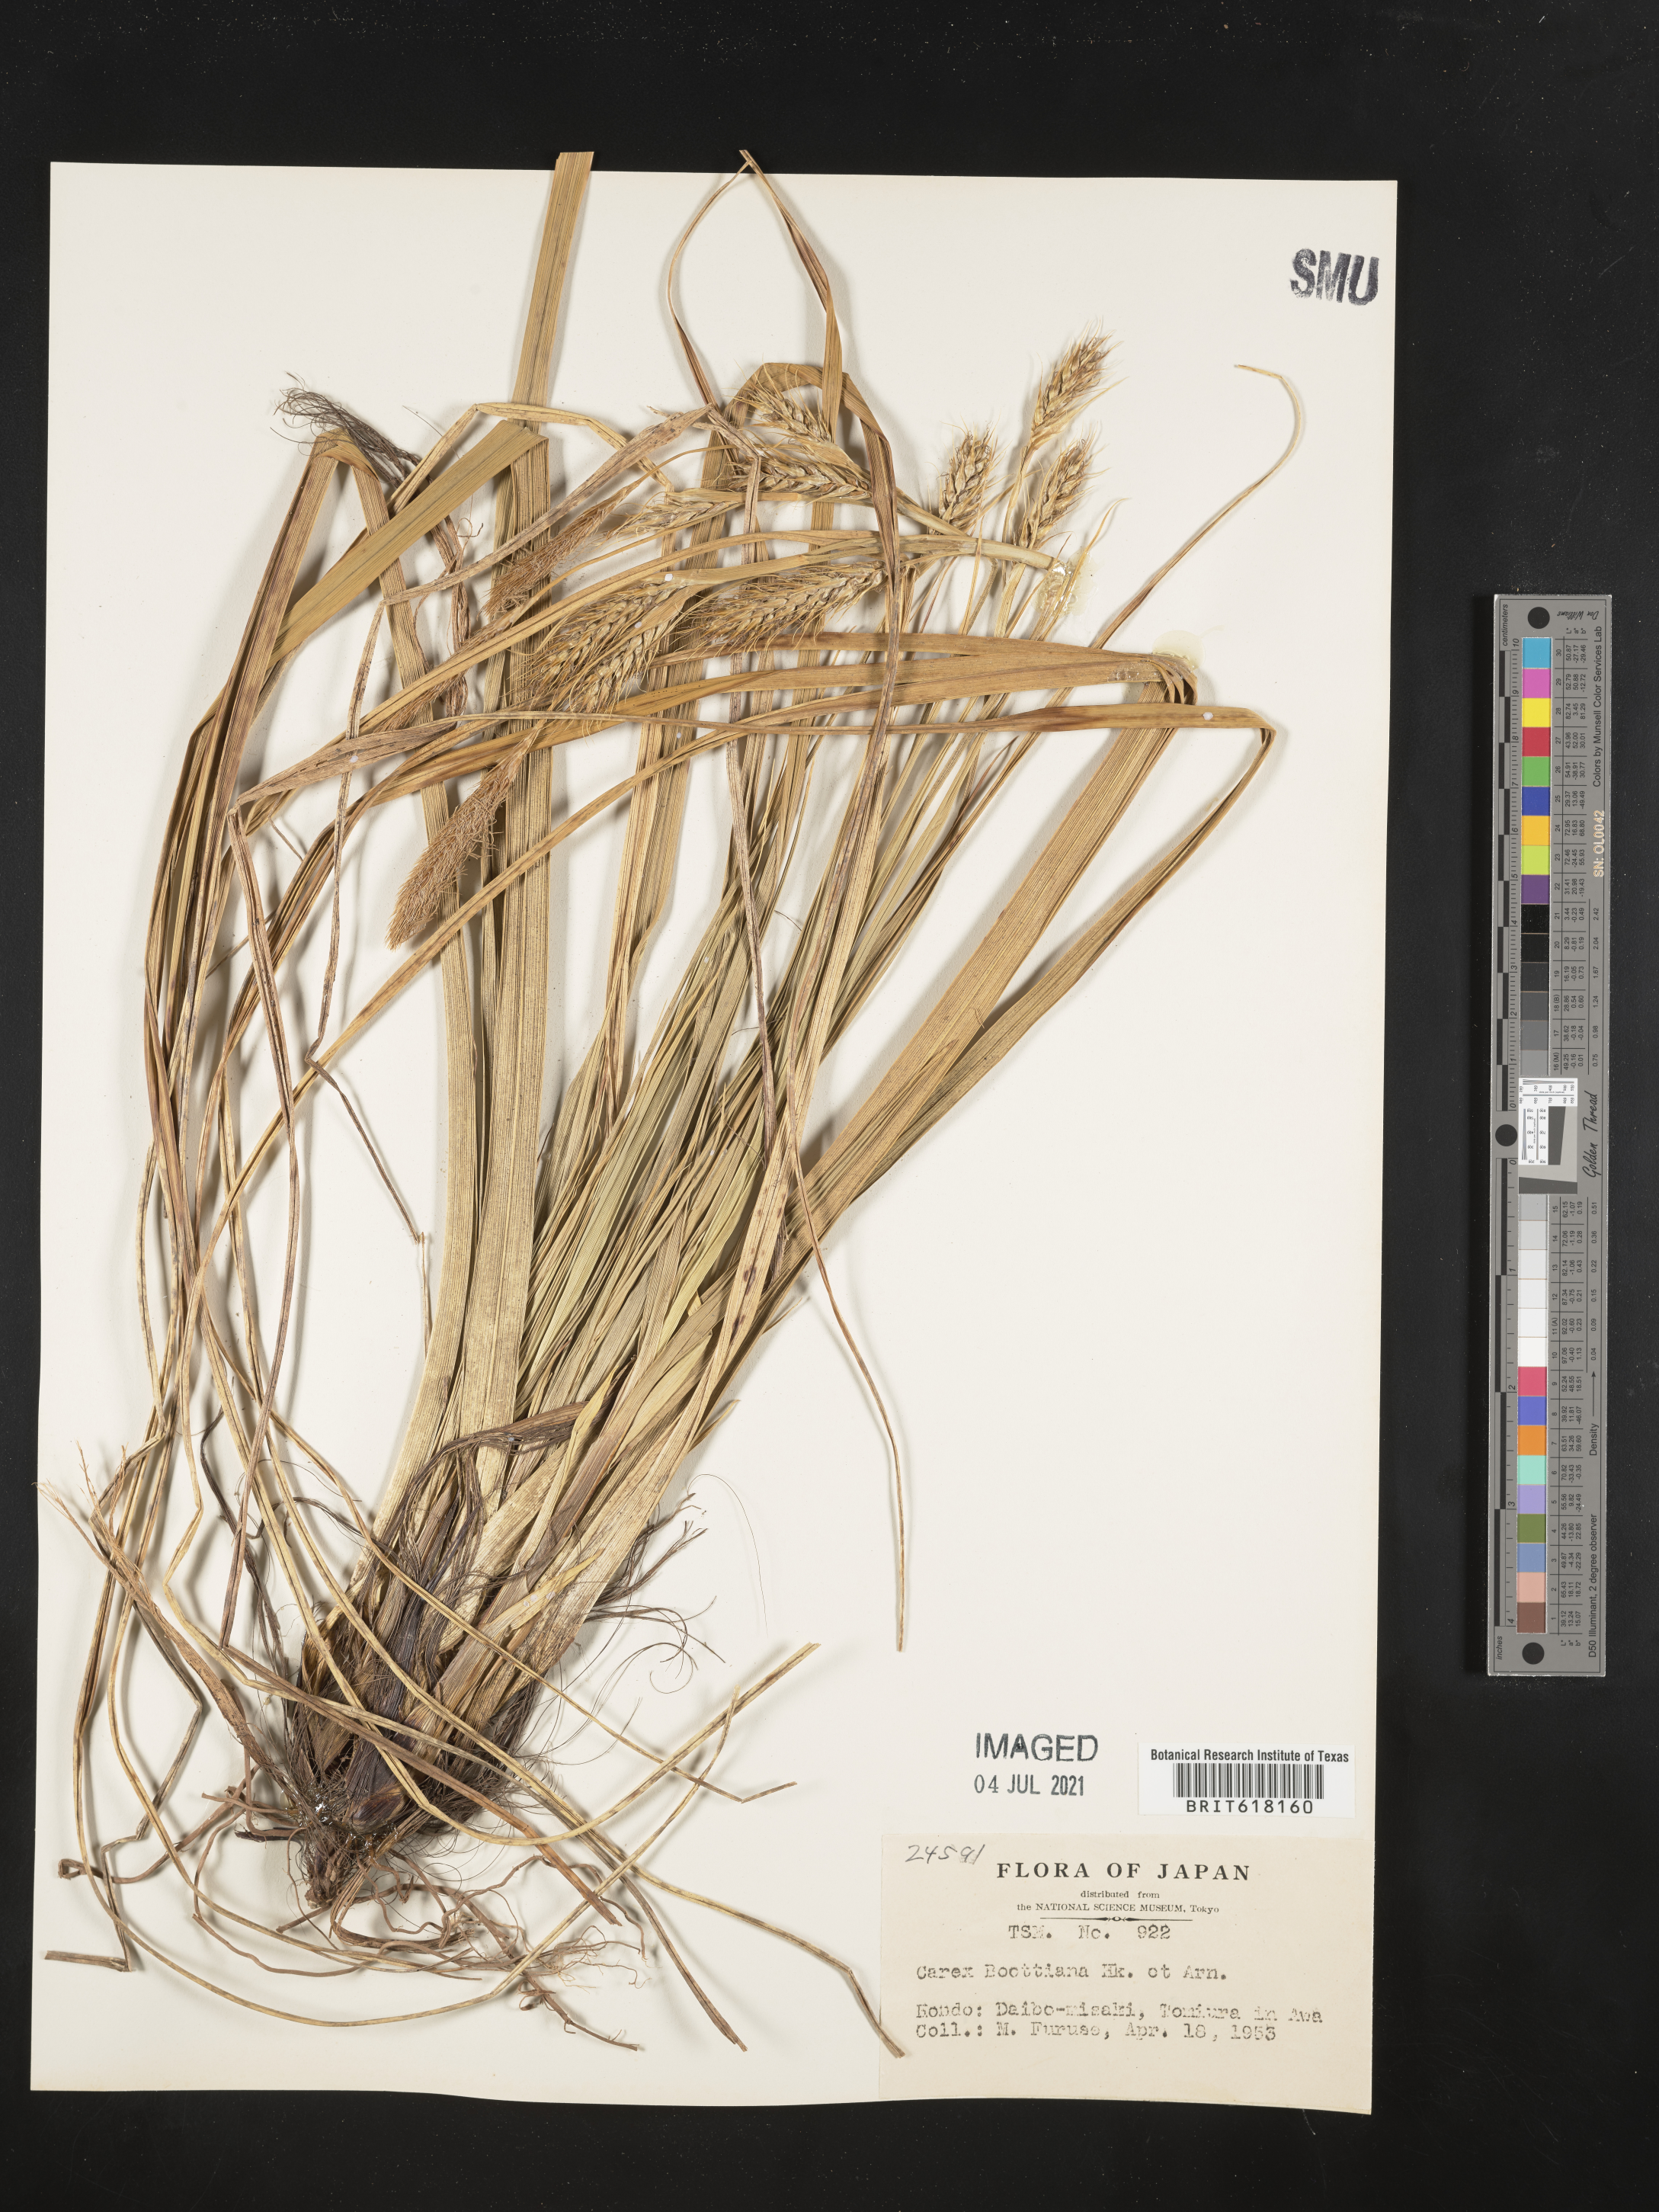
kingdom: Plantae
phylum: Tracheophyta
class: Liliopsida
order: Poales
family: Cyperaceae
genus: Carex
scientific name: Carex wahuensis
